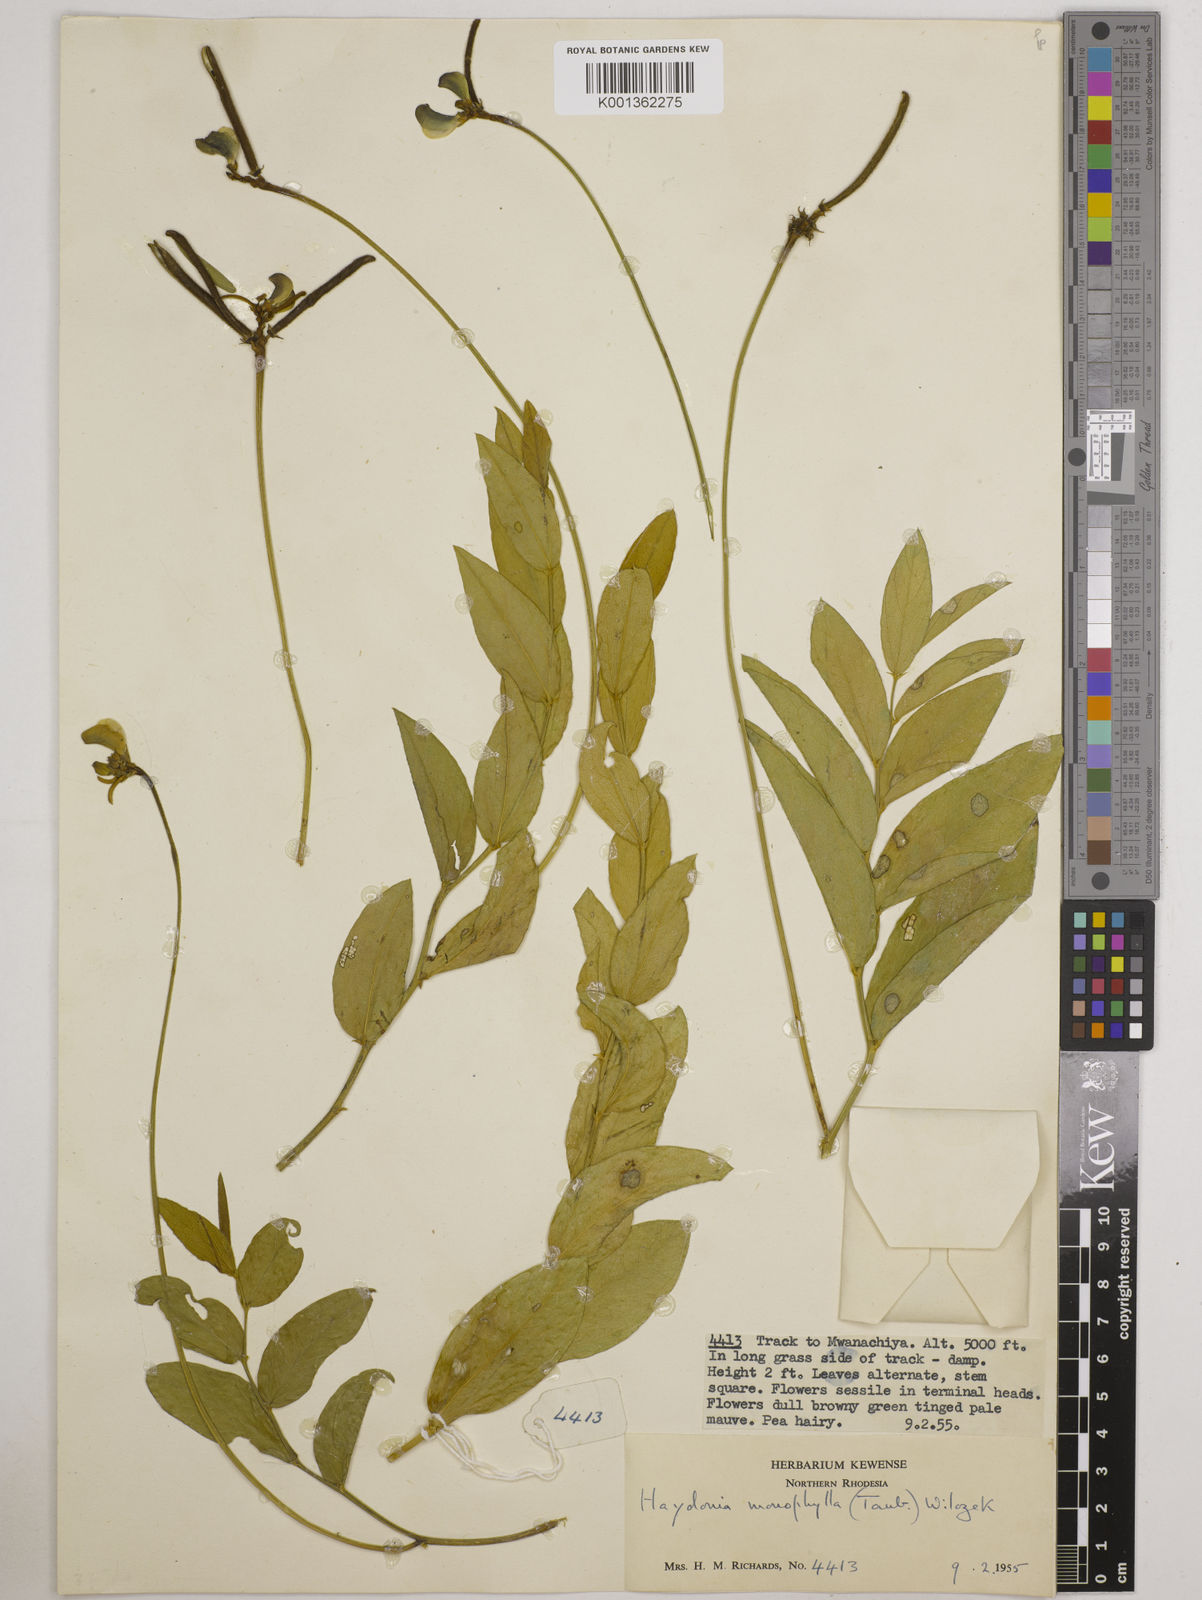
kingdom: Plantae
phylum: Tracheophyta
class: Magnoliopsida
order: Fabales
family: Fabaceae
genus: Vigna
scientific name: Vigna monophylla
